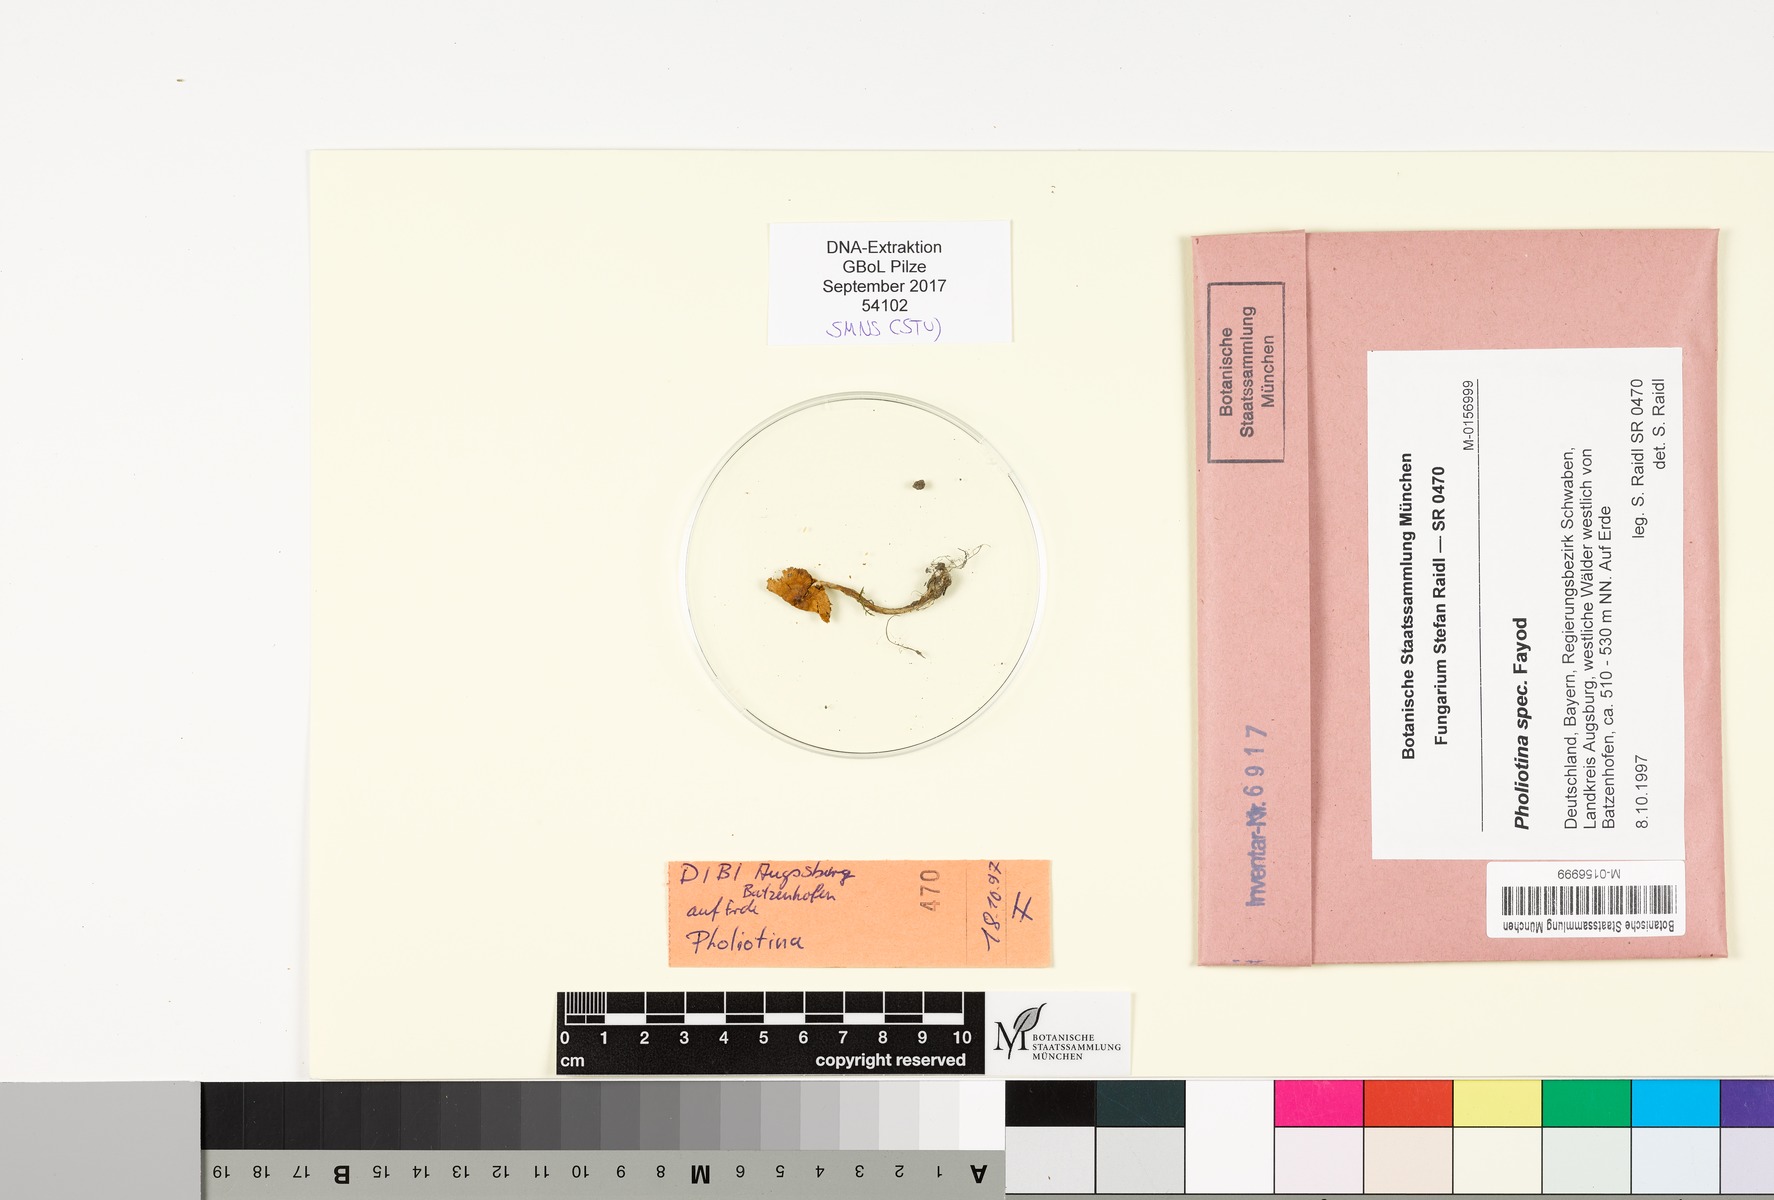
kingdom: Fungi
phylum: Basidiomycota
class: Agaricomycetes
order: Agaricales
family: Bolbitiaceae
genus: Pholiotina
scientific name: Pholiotina
